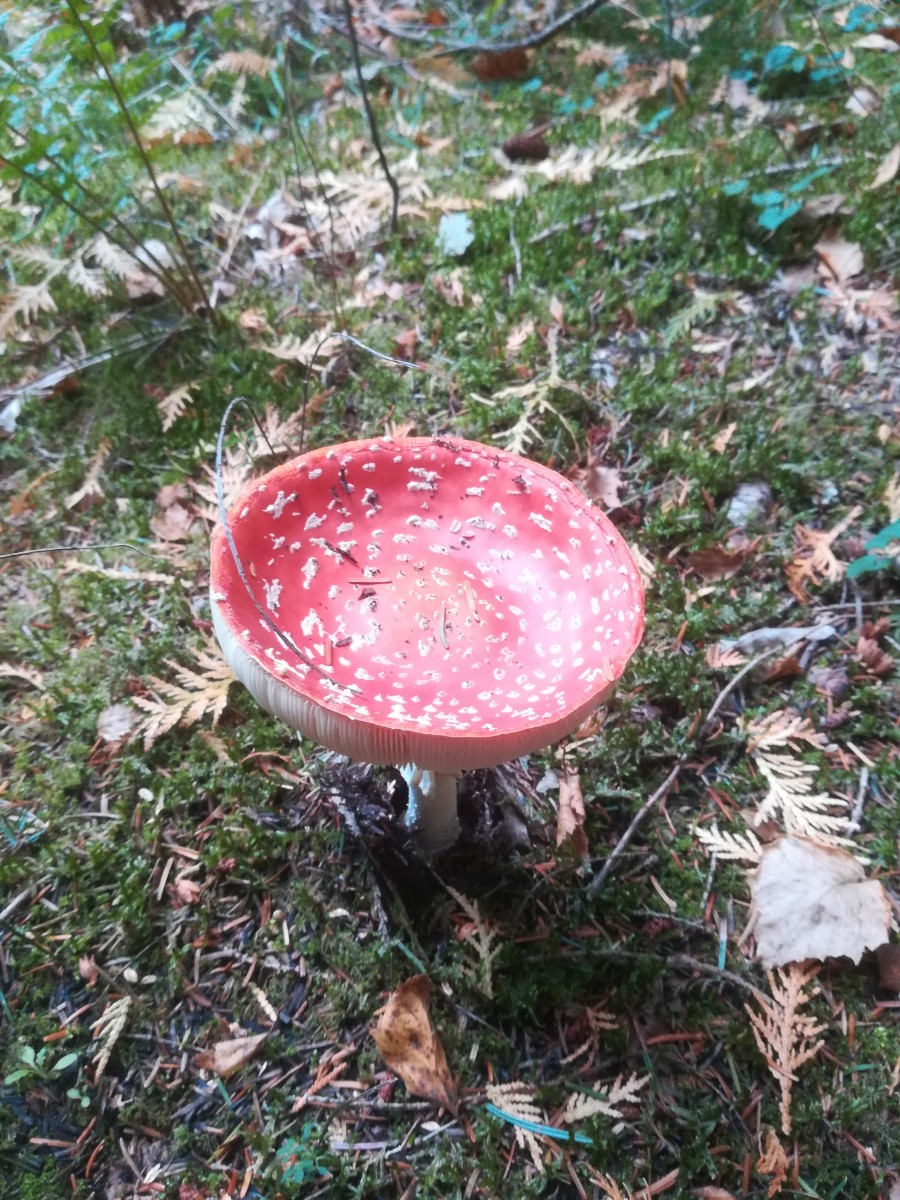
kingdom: Fungi
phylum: Basidiomycota
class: Agaricomycetes
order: Agaricales
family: Amanitaceae
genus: Amanita
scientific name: Amanita muscaria
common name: rød fluesvamp
